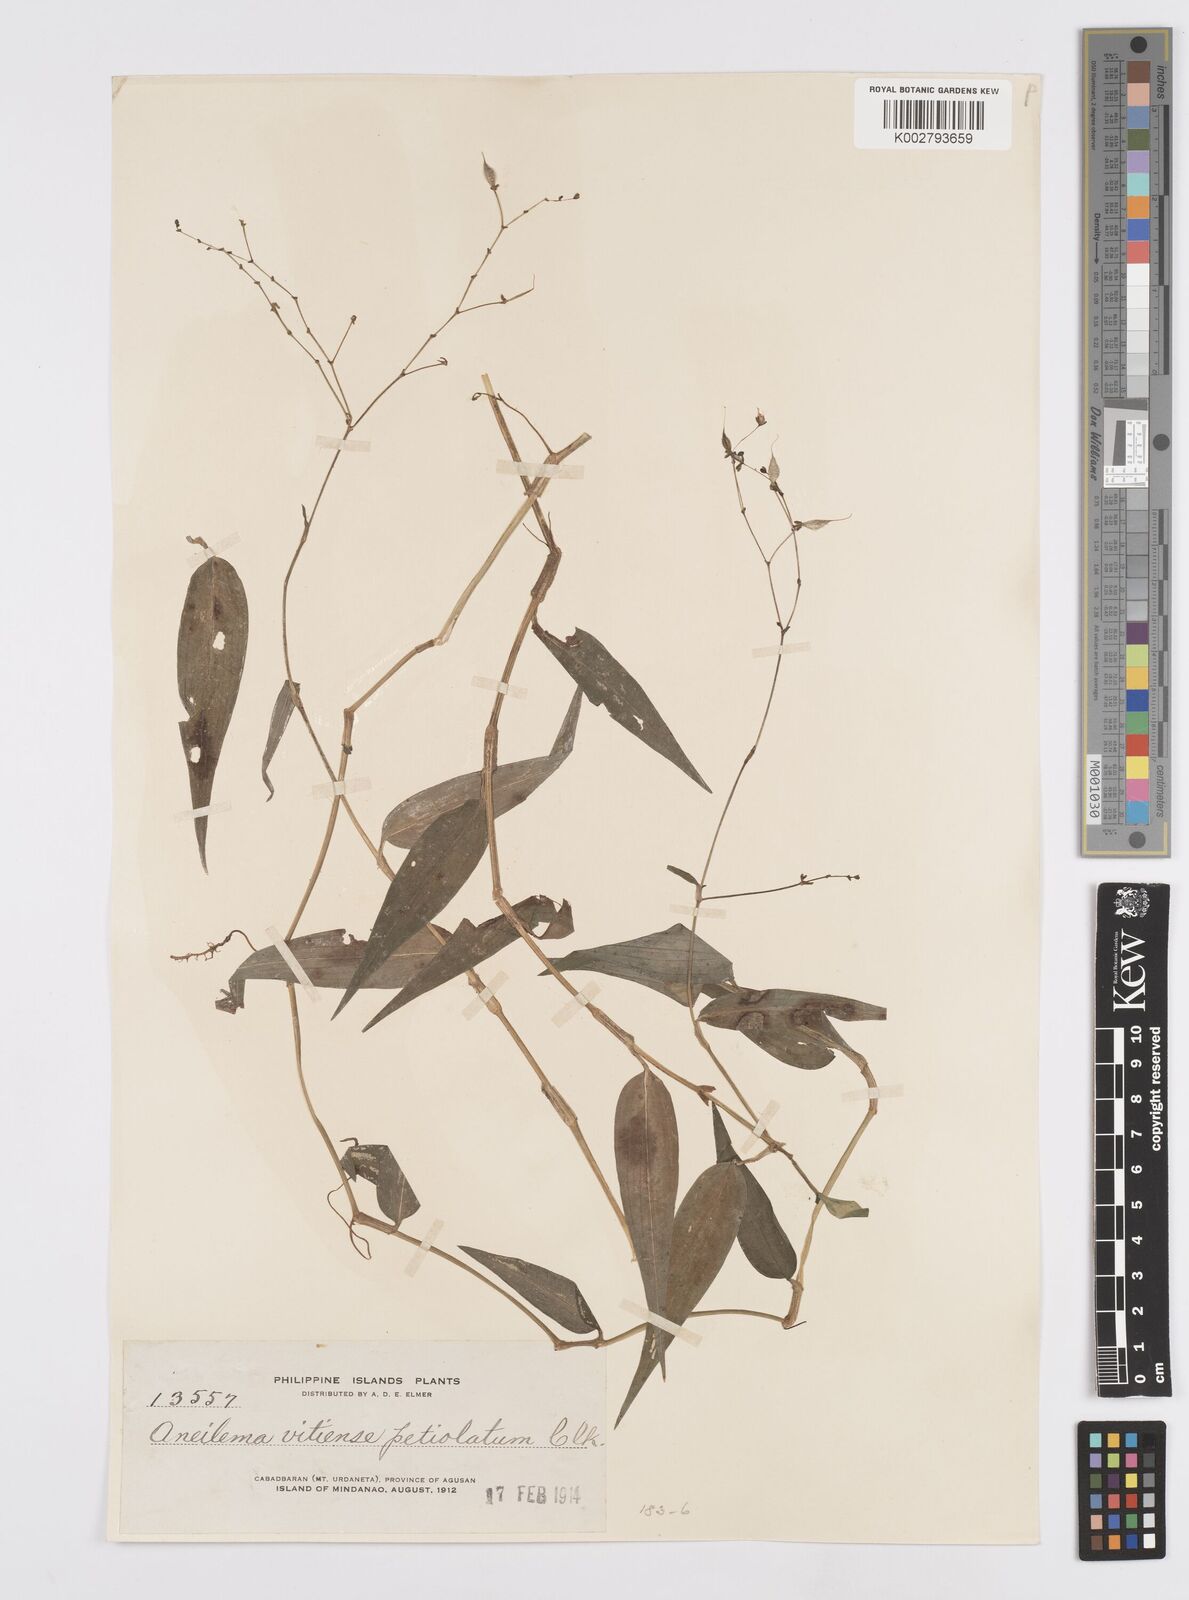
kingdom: Plantae
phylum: Tracheophyta
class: Liliopsida
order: Commelinales
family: Commelinaceae
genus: Murdannia
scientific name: Murdannia
